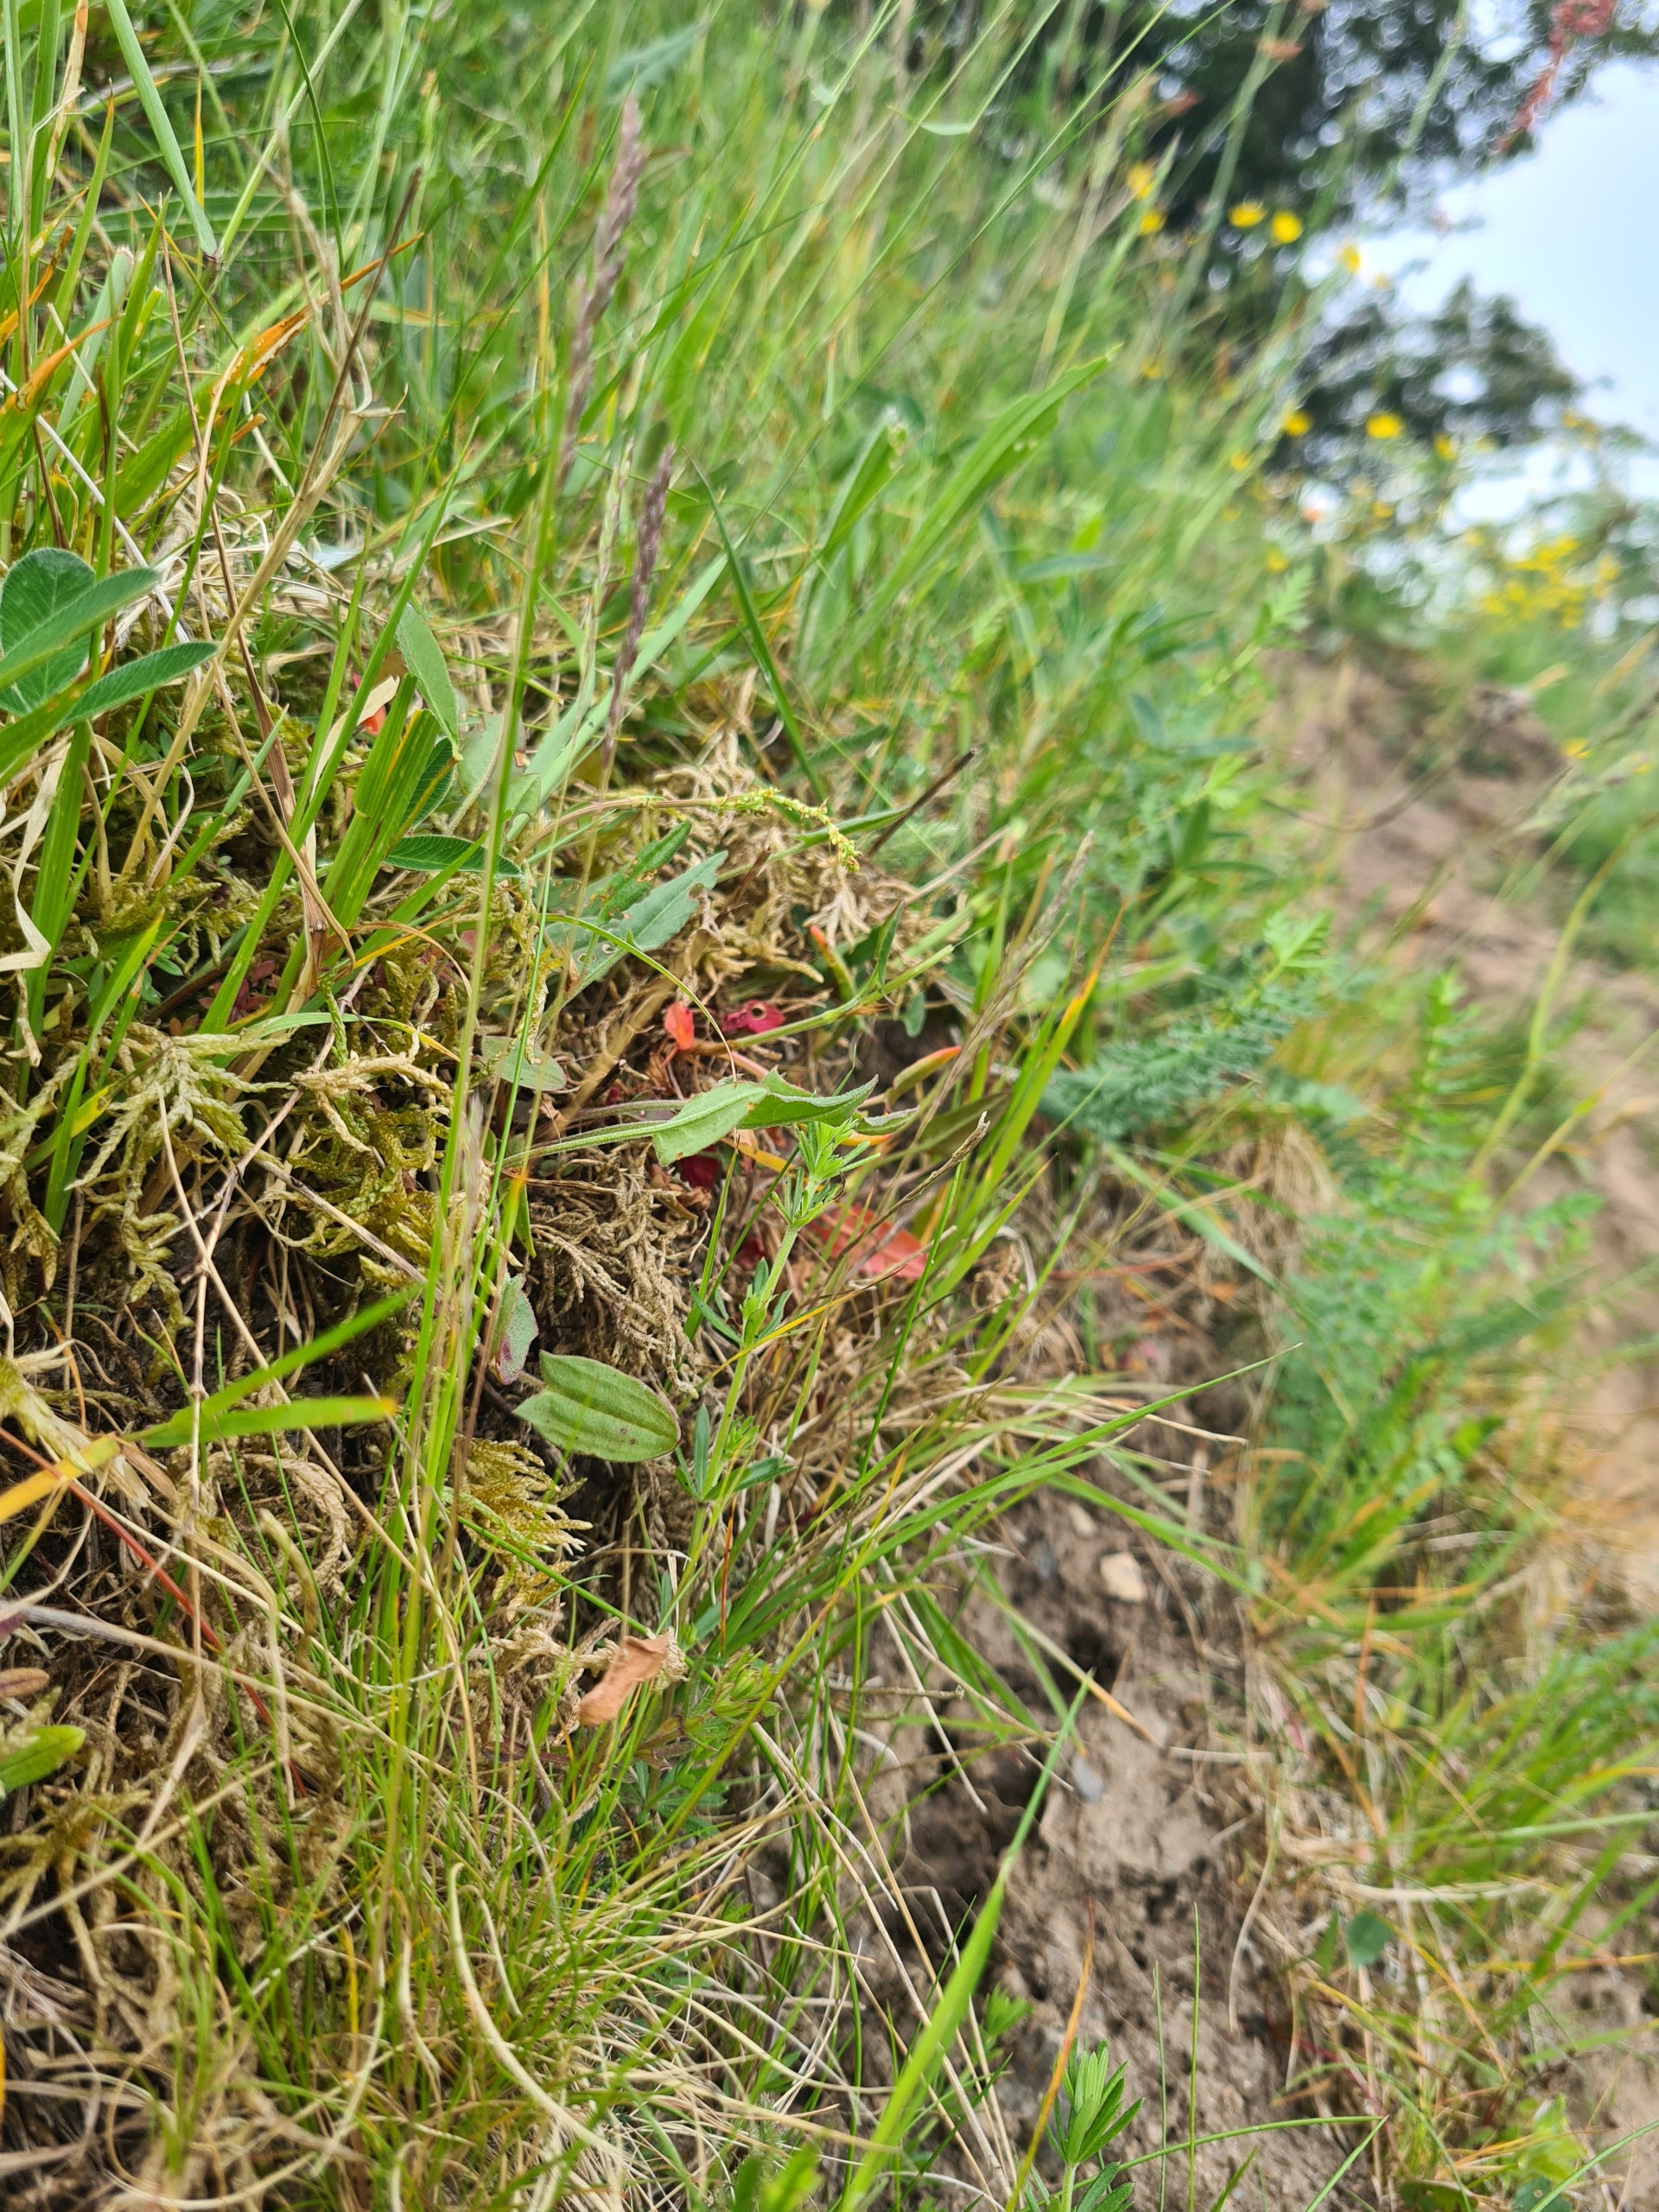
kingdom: Plantae
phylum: Tracheophyta
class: Liliopsida
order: Poales
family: Poaceae
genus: Festuca
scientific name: Festuca ovina
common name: Fåre-svingel
